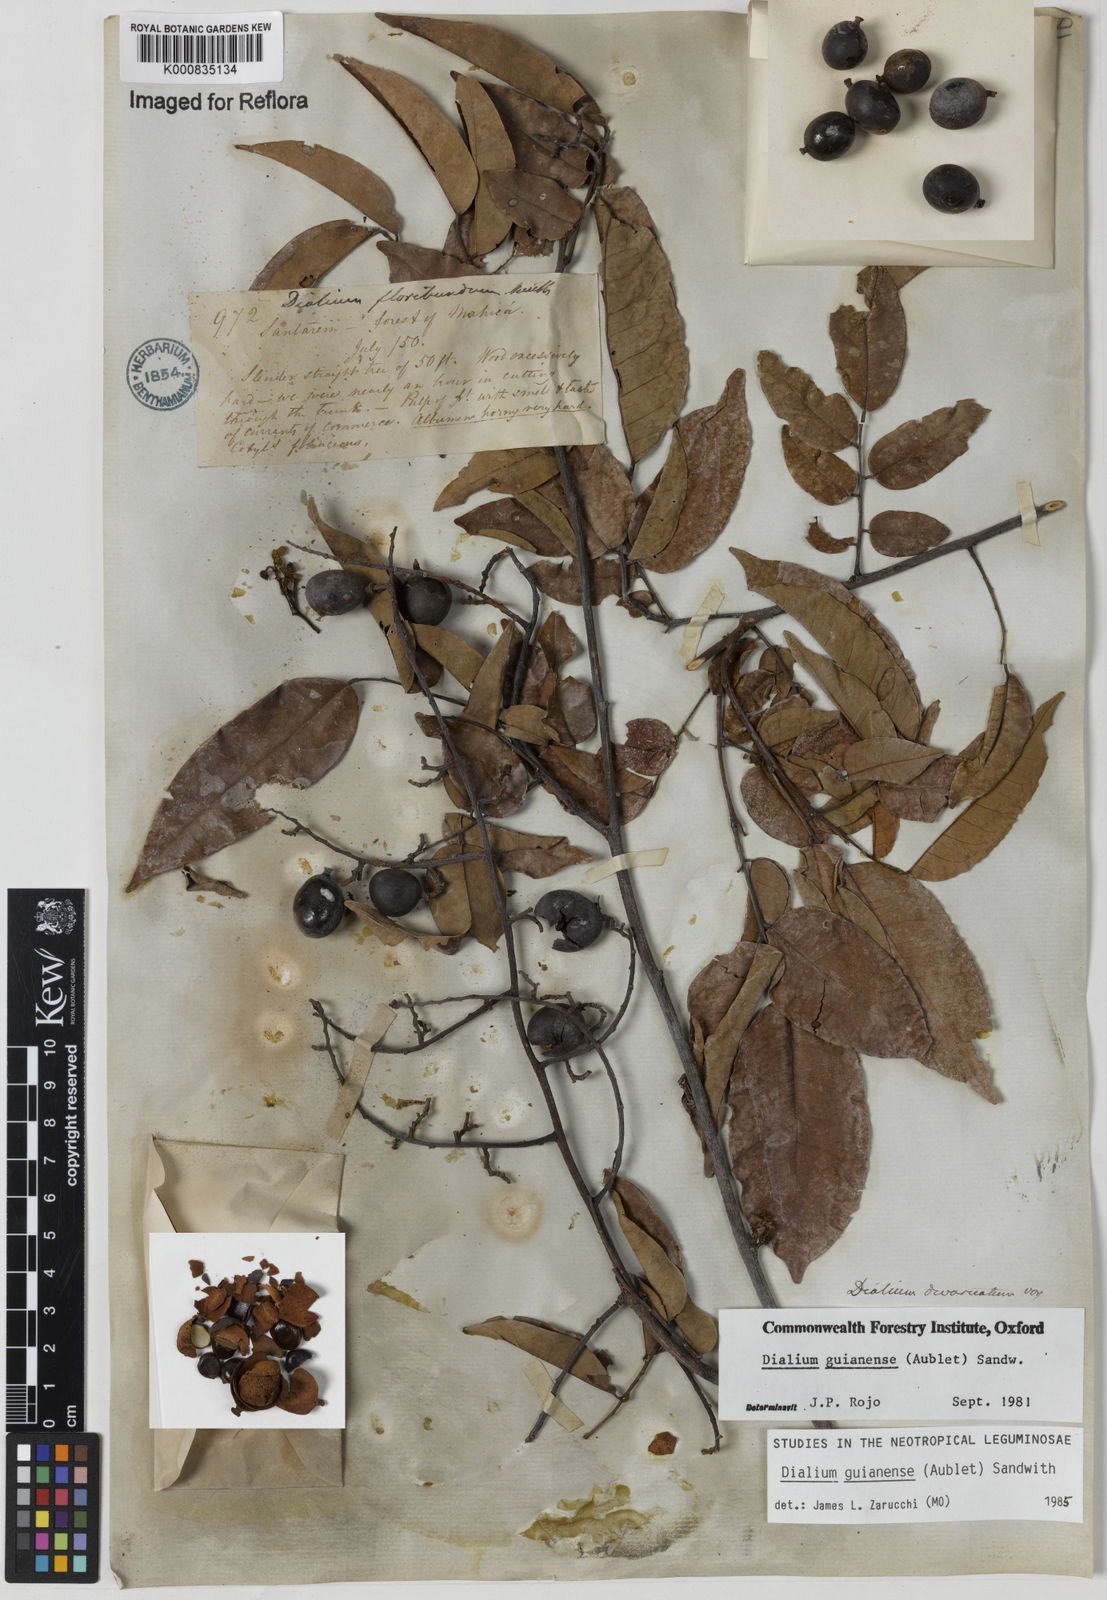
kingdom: Plantae
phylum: Tracheophyta
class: Magnoliopsida
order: Fabales
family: Fabaceae
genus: Dialium
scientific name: Dialium guianense
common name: Ironwood
